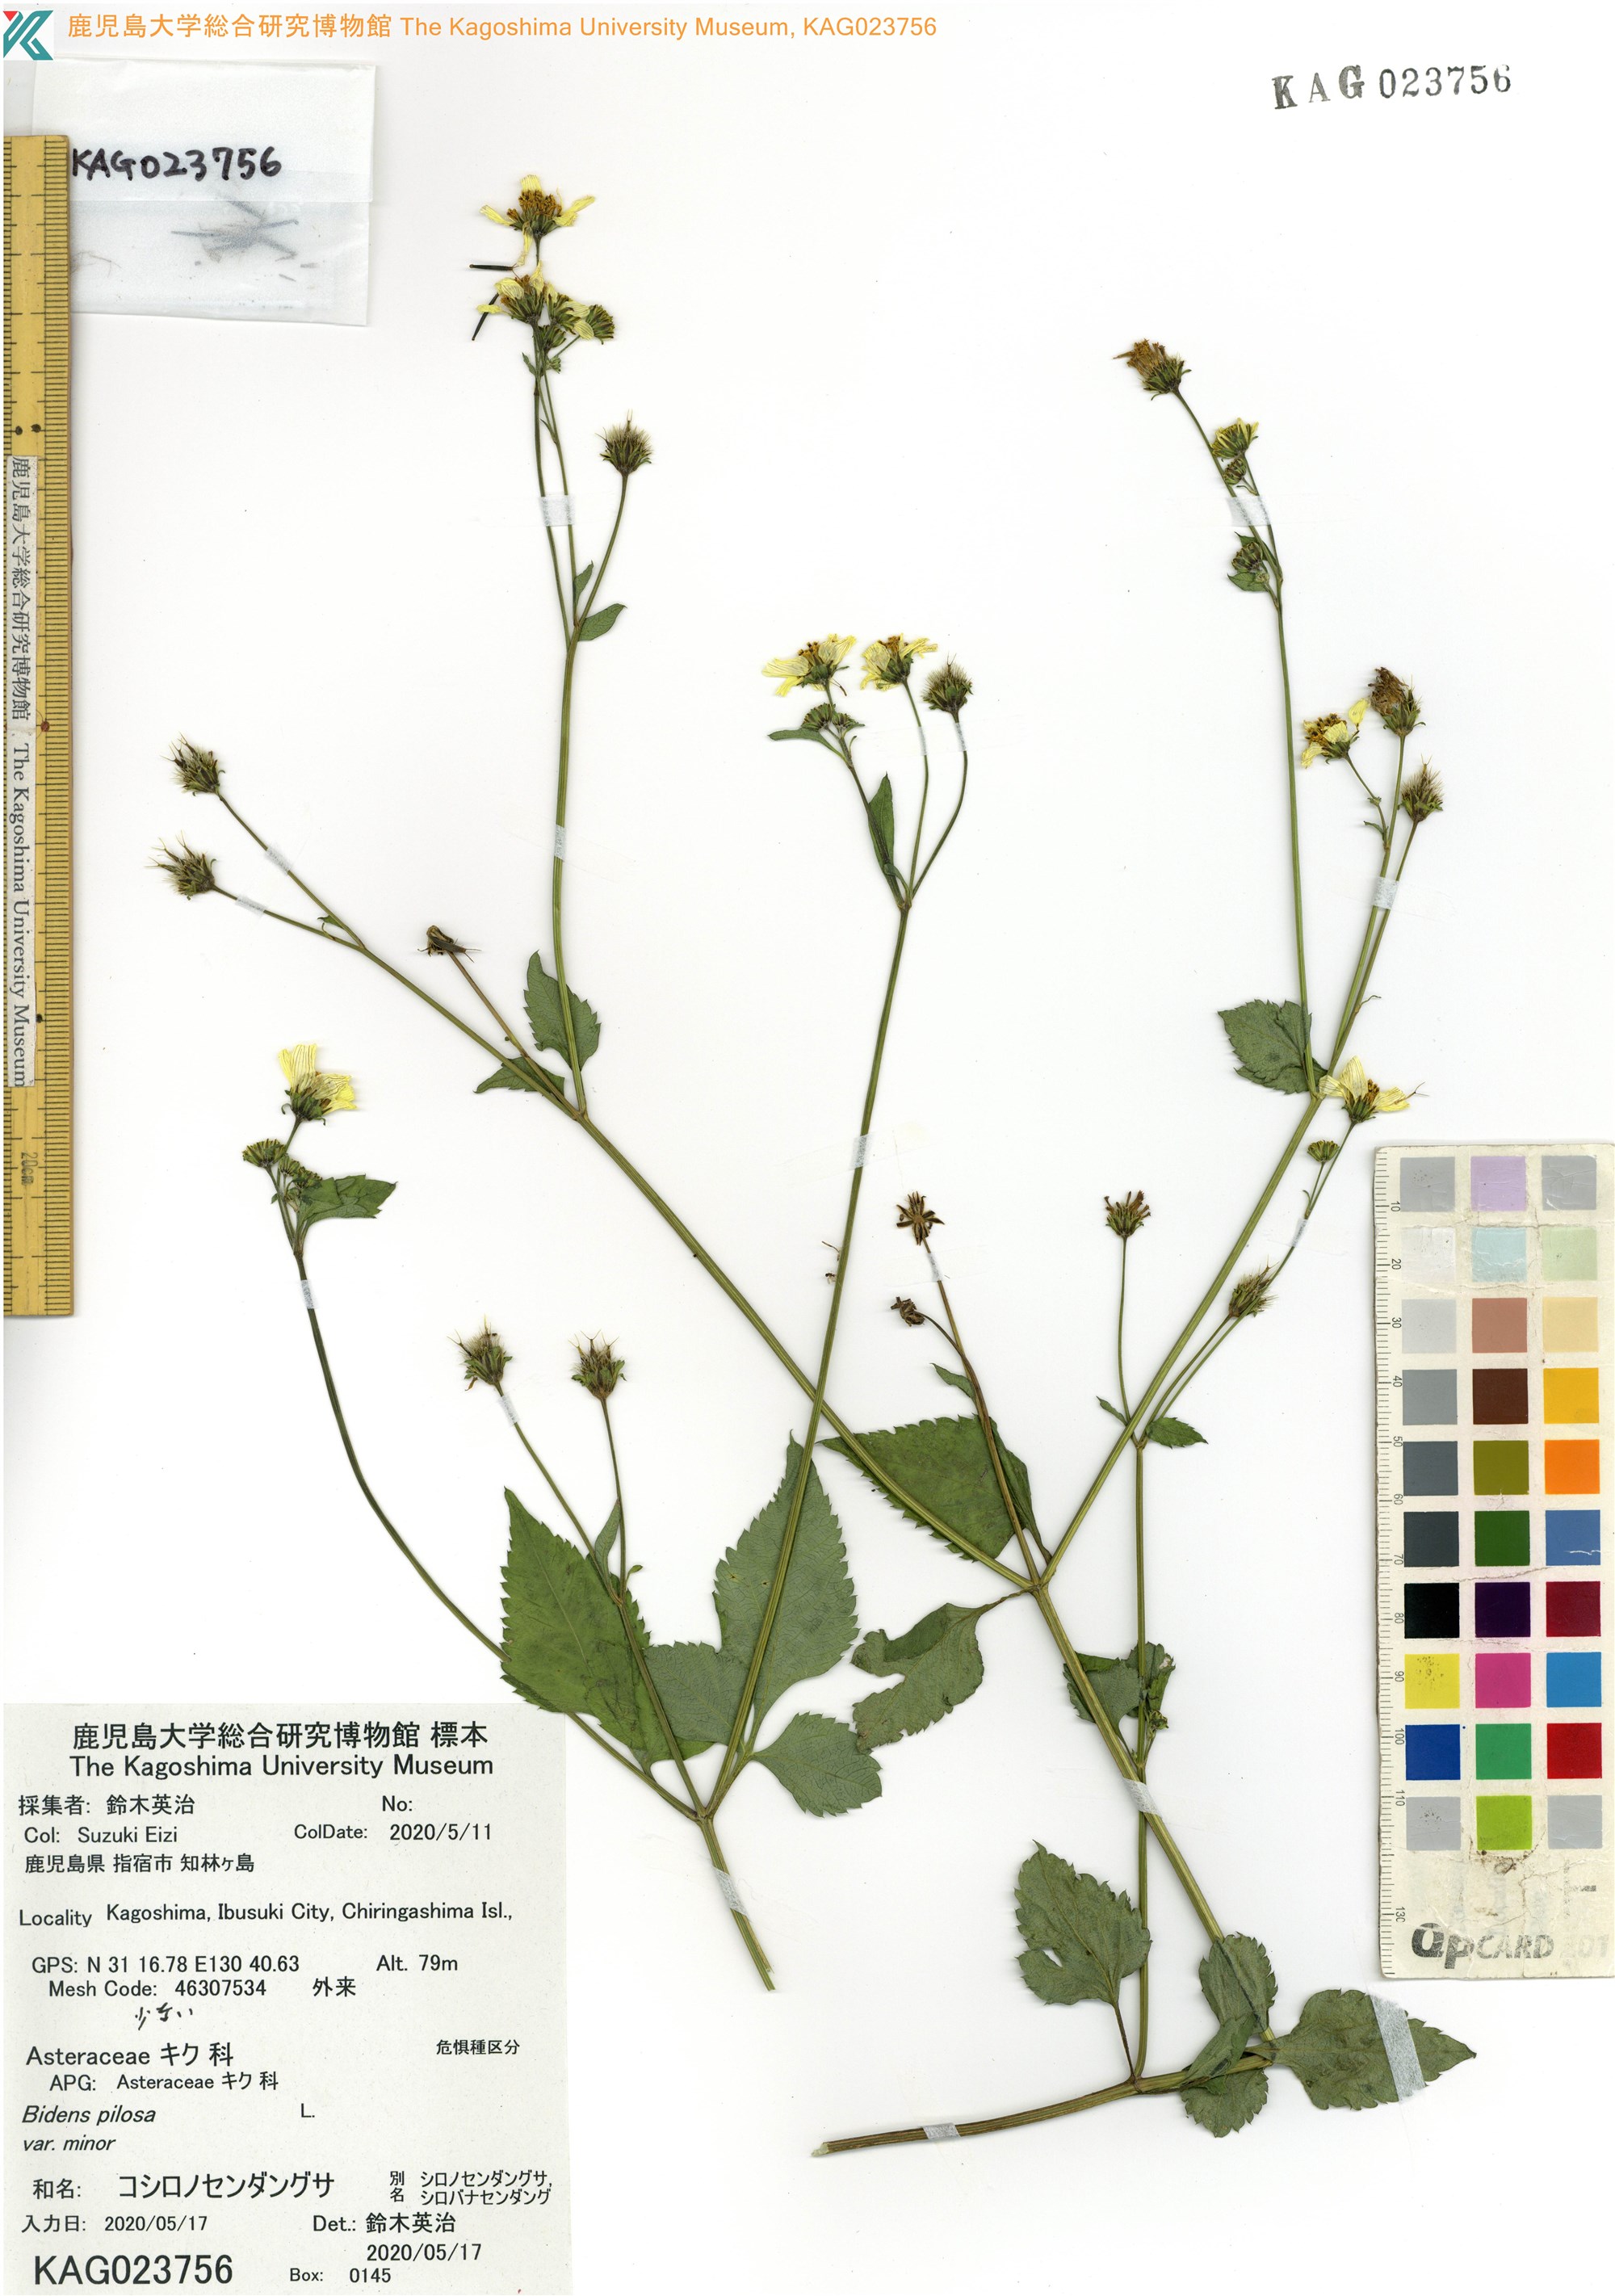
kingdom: Plantae
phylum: Tracheophyta
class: Magnoliopsida
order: Asterales
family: Asteraceae
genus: Bidens
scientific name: Bidens pilosa
